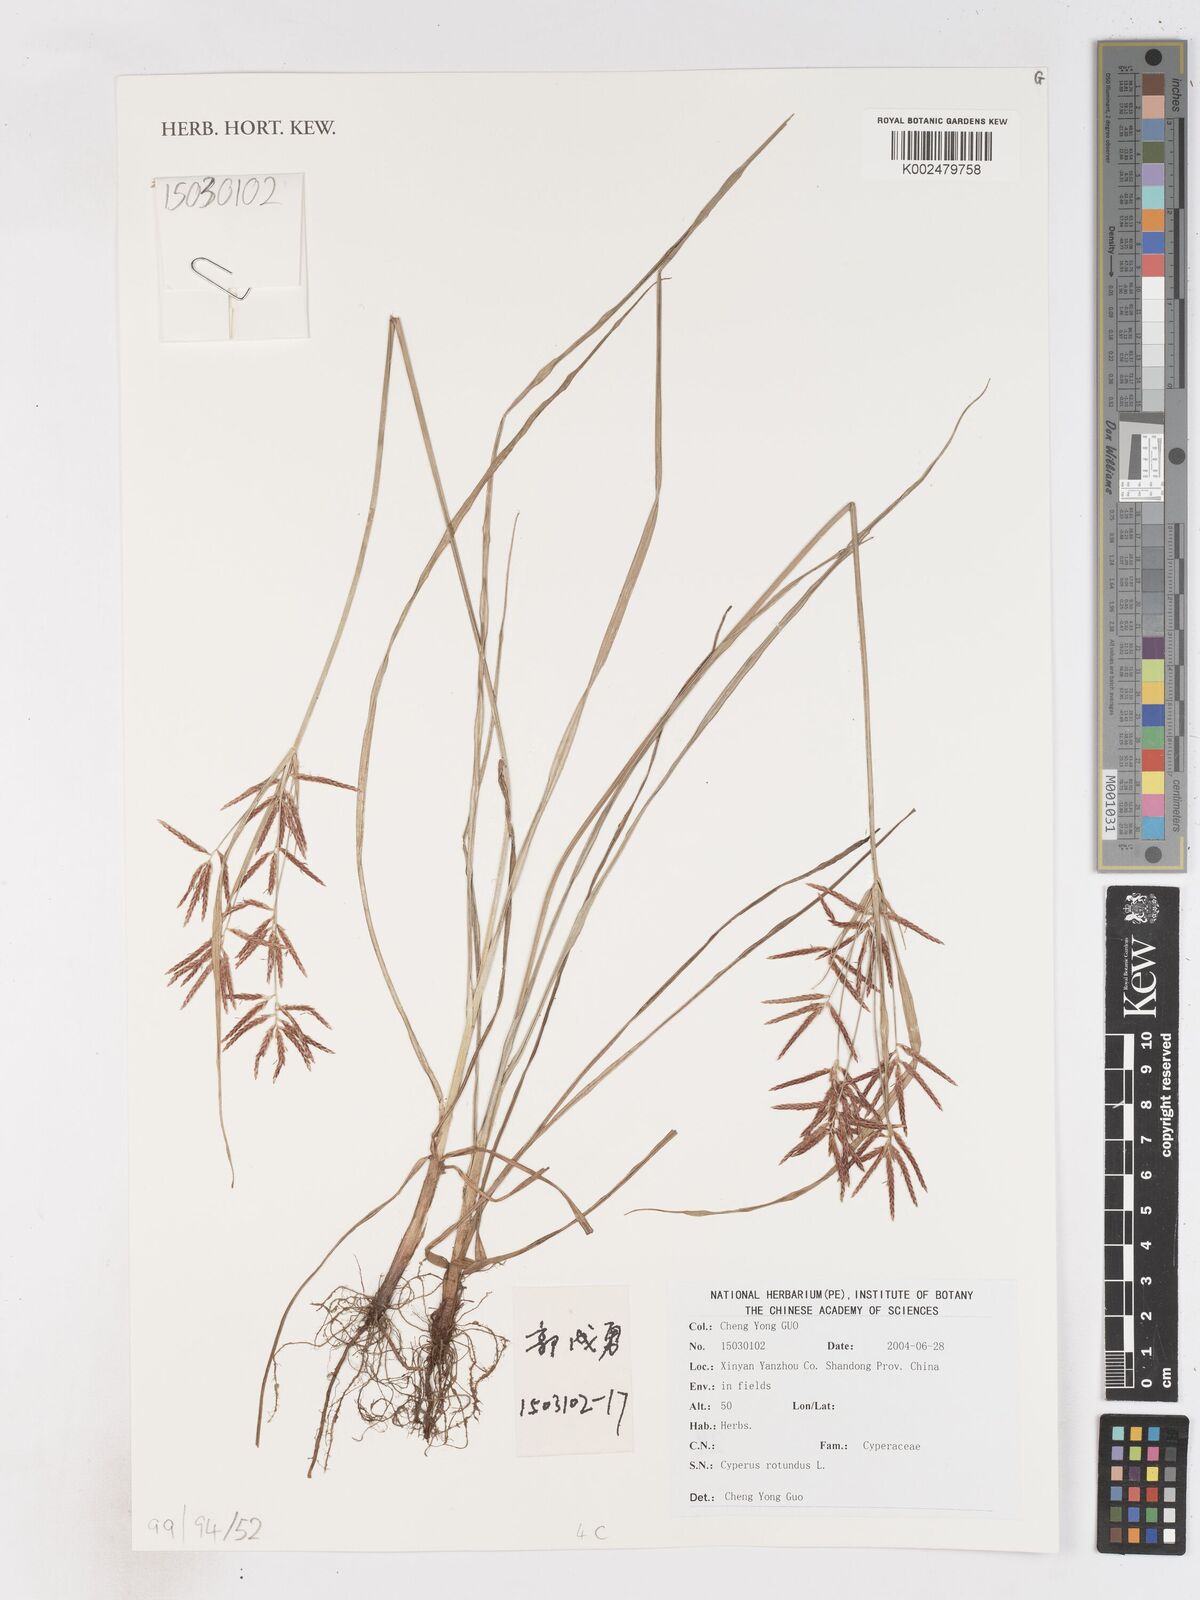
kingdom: Plantae
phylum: Tracheophyta
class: Liliopsida
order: Poales
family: Cyperaceae
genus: Cyperus
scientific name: Cyperus rotundus
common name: Nutgrass
